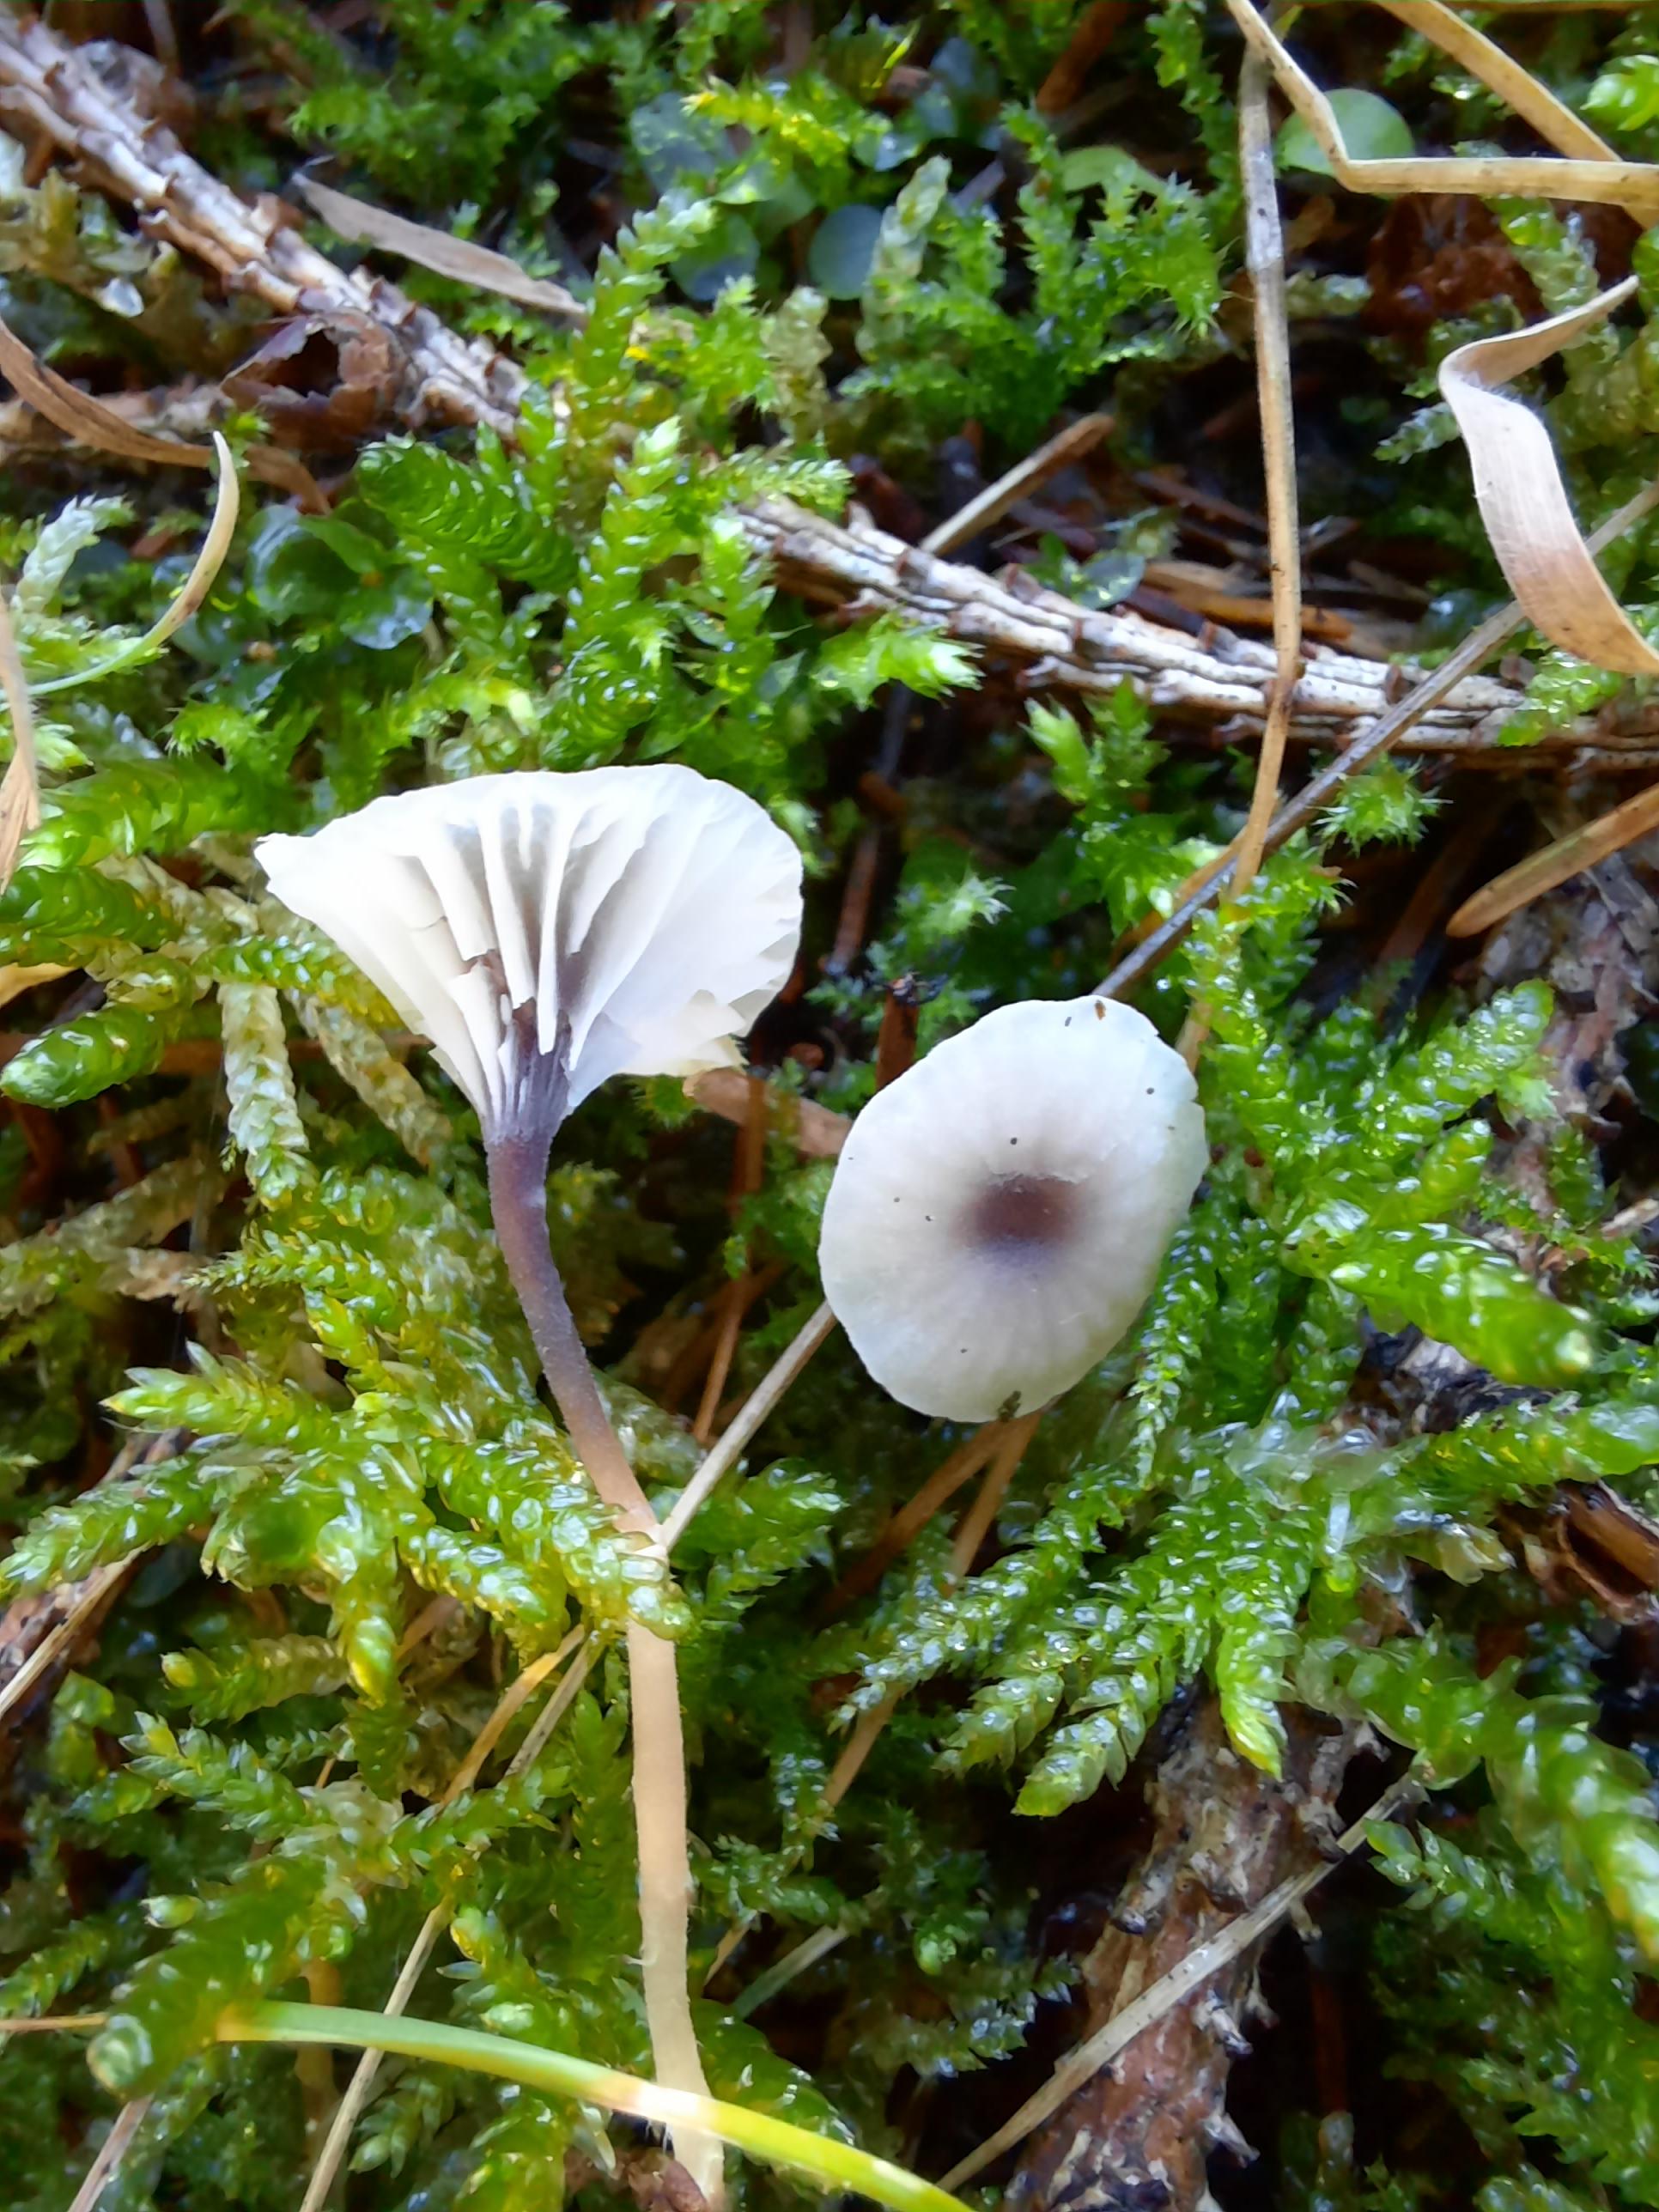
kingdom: Fungi
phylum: Basidiomycota
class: Agaricomycetes
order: Hymenochaetales
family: Rickenellaceae
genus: Rickenella
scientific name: Rickenella swartzii
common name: finstokket mosnavlehat
